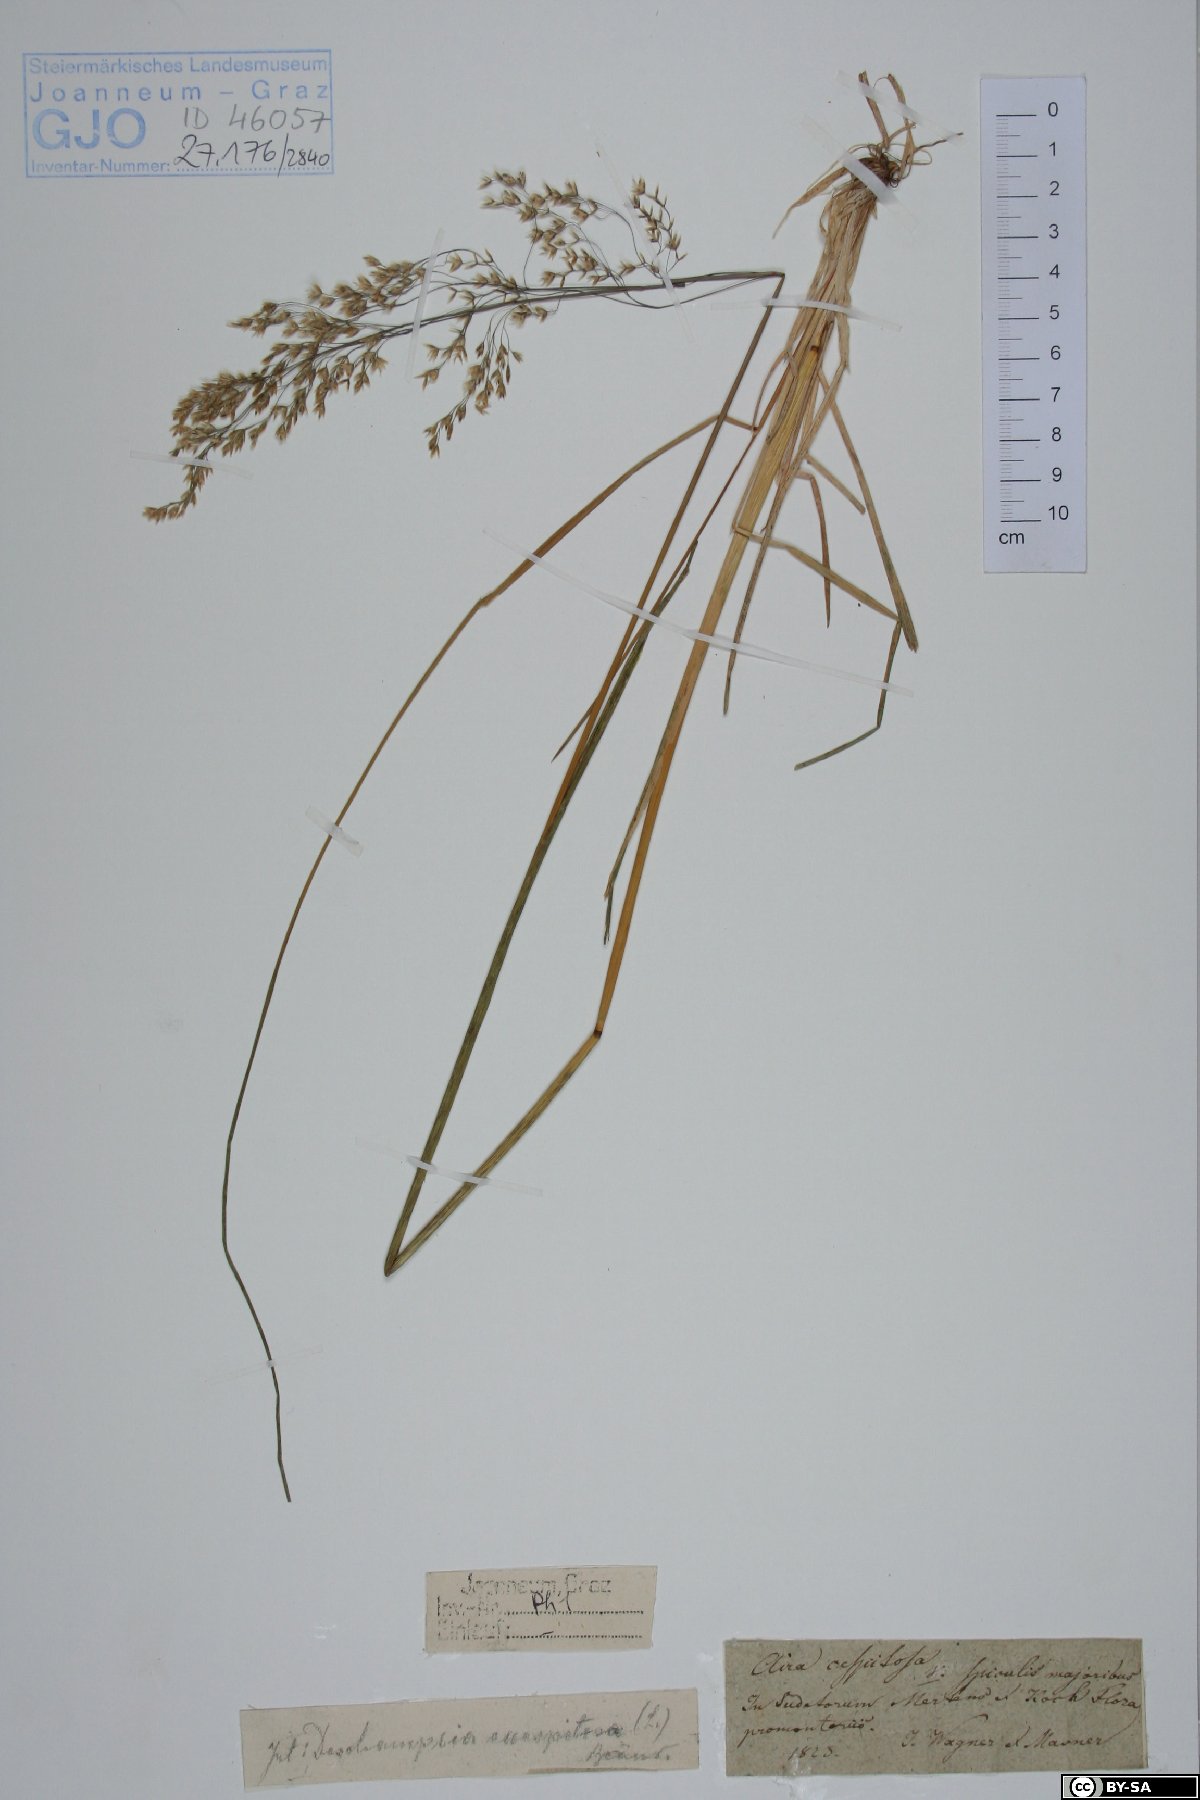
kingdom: Plantae
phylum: Tracheophyta
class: Liliopsida
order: Poales
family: Poaceae
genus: Deschampsia
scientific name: Deschampsia cespitosa
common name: Tufted hair-grass
